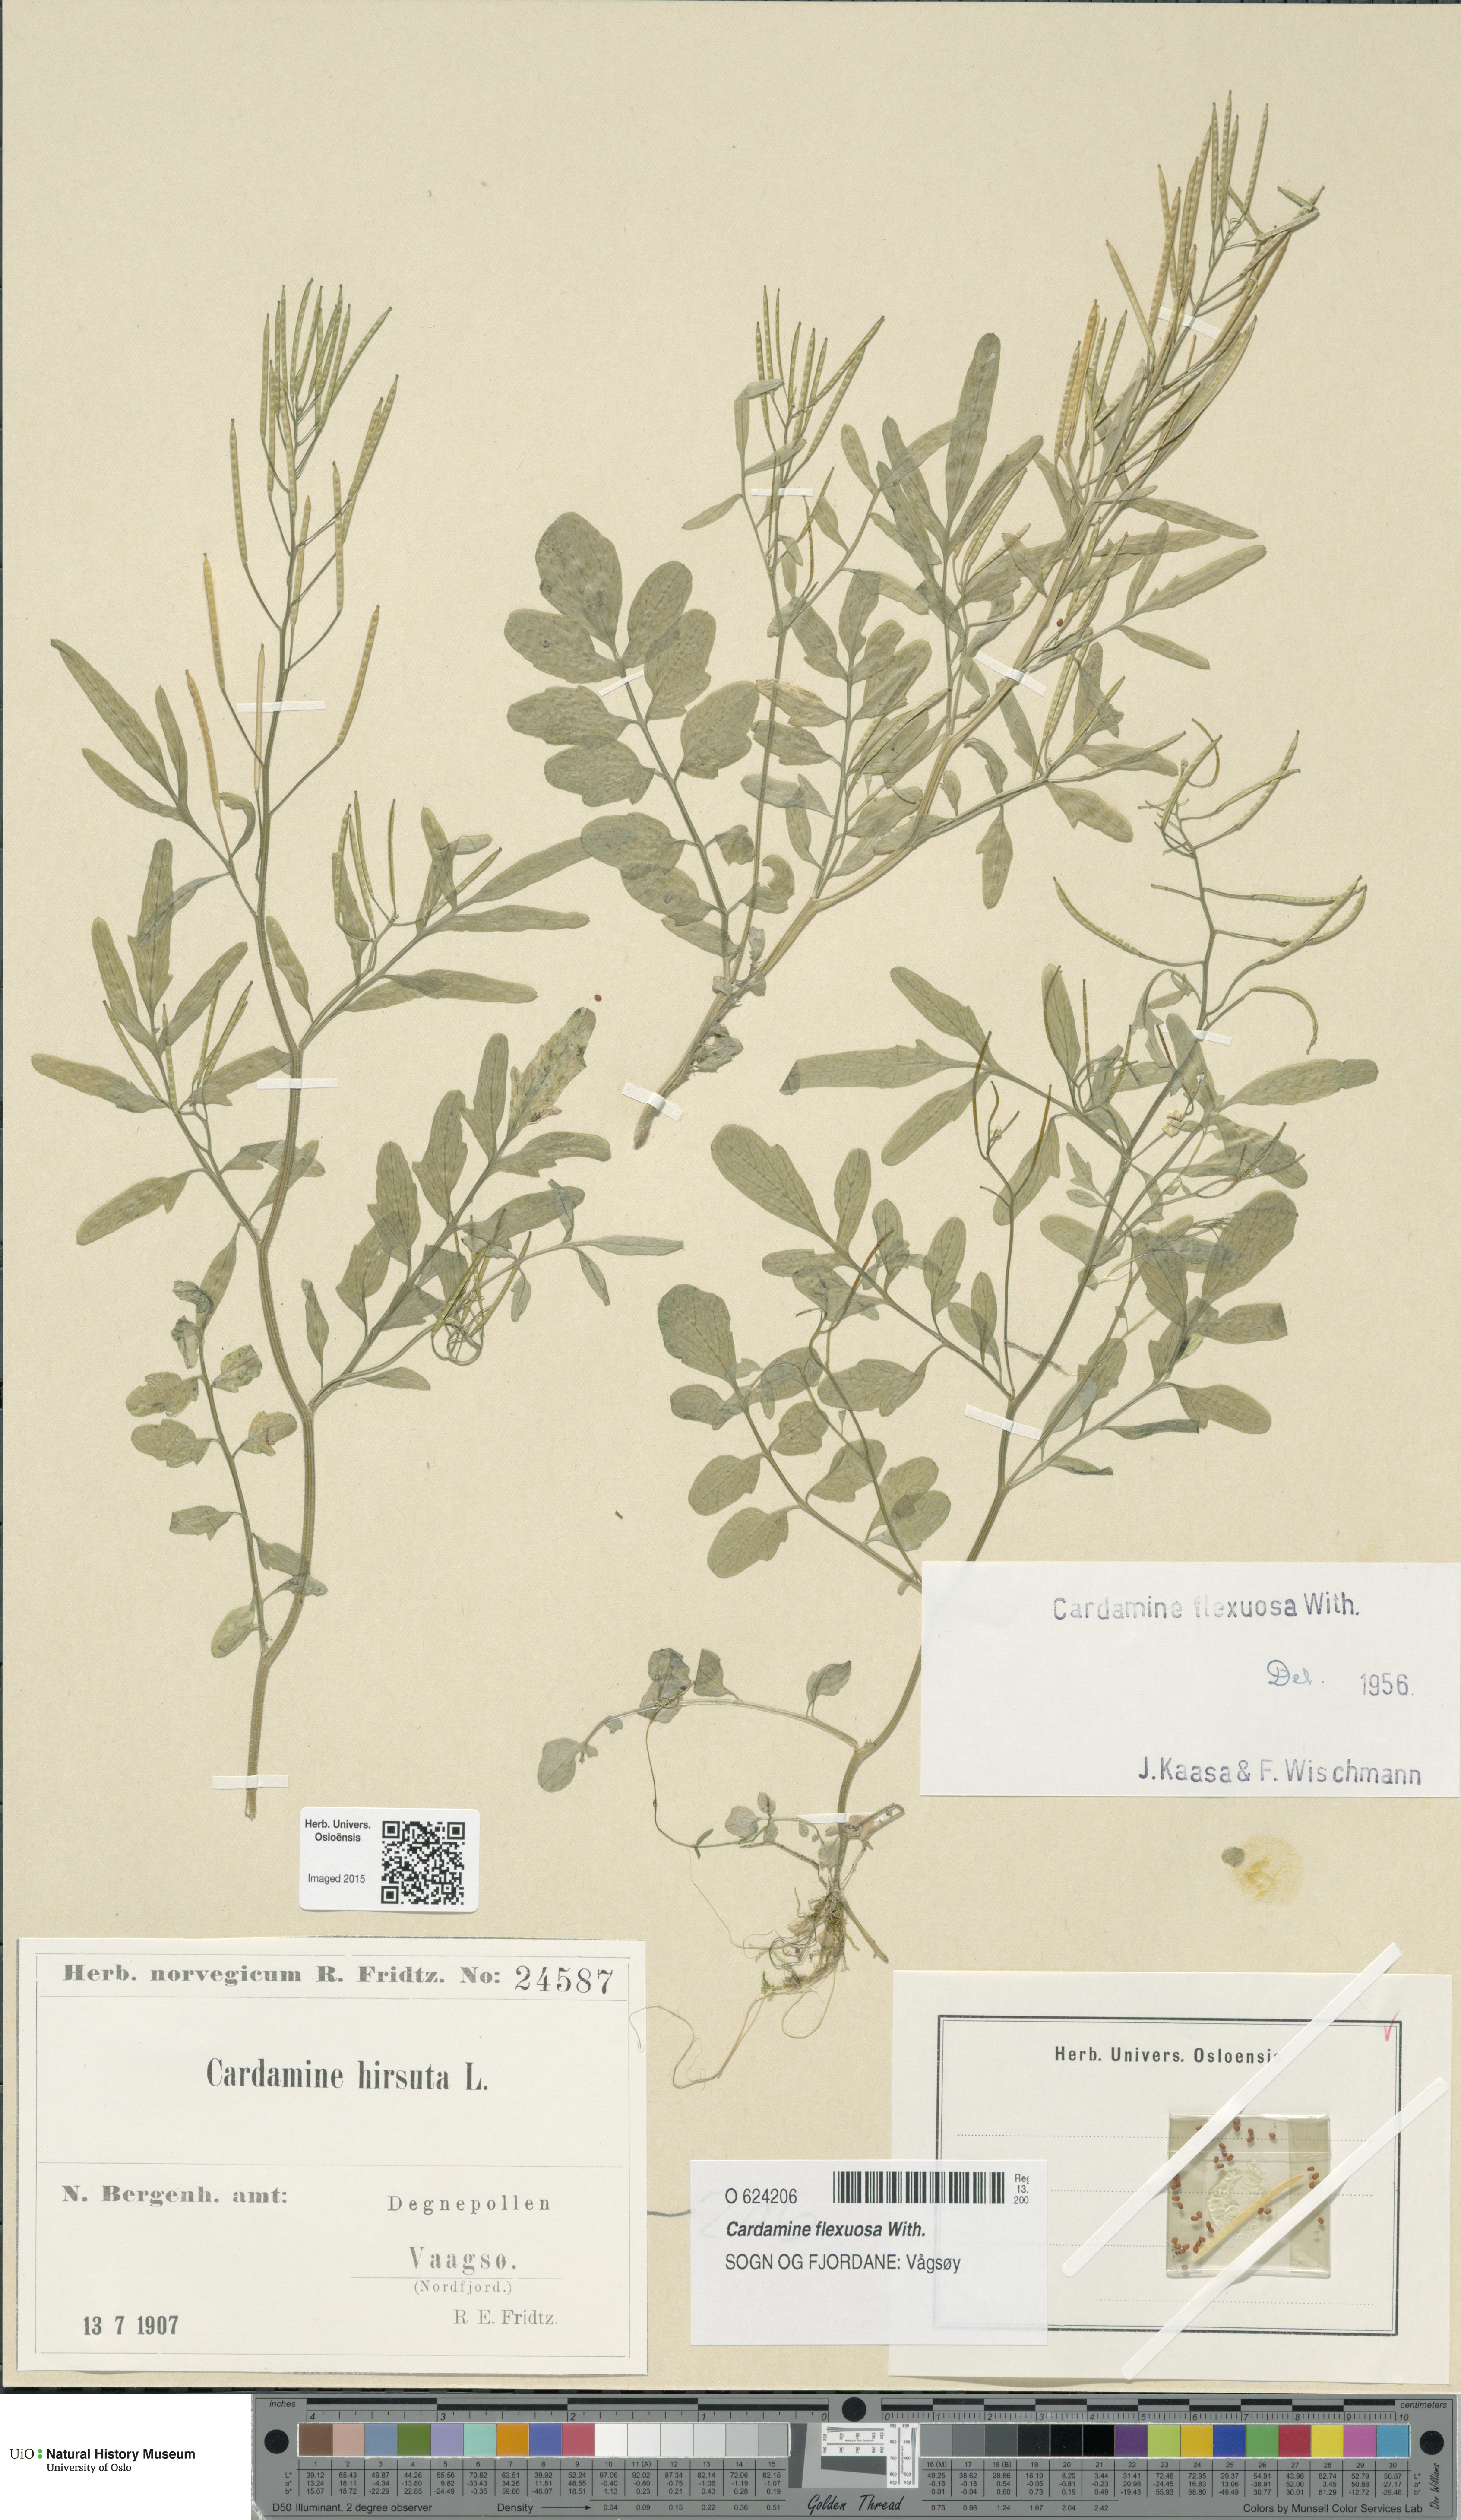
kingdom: Plantae
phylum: Tracheophyta
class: Magnoliopsida
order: Brassicales
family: Brassicaceae
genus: Cardamine
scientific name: Cardamine flexuosa
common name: Woodland bittercress
